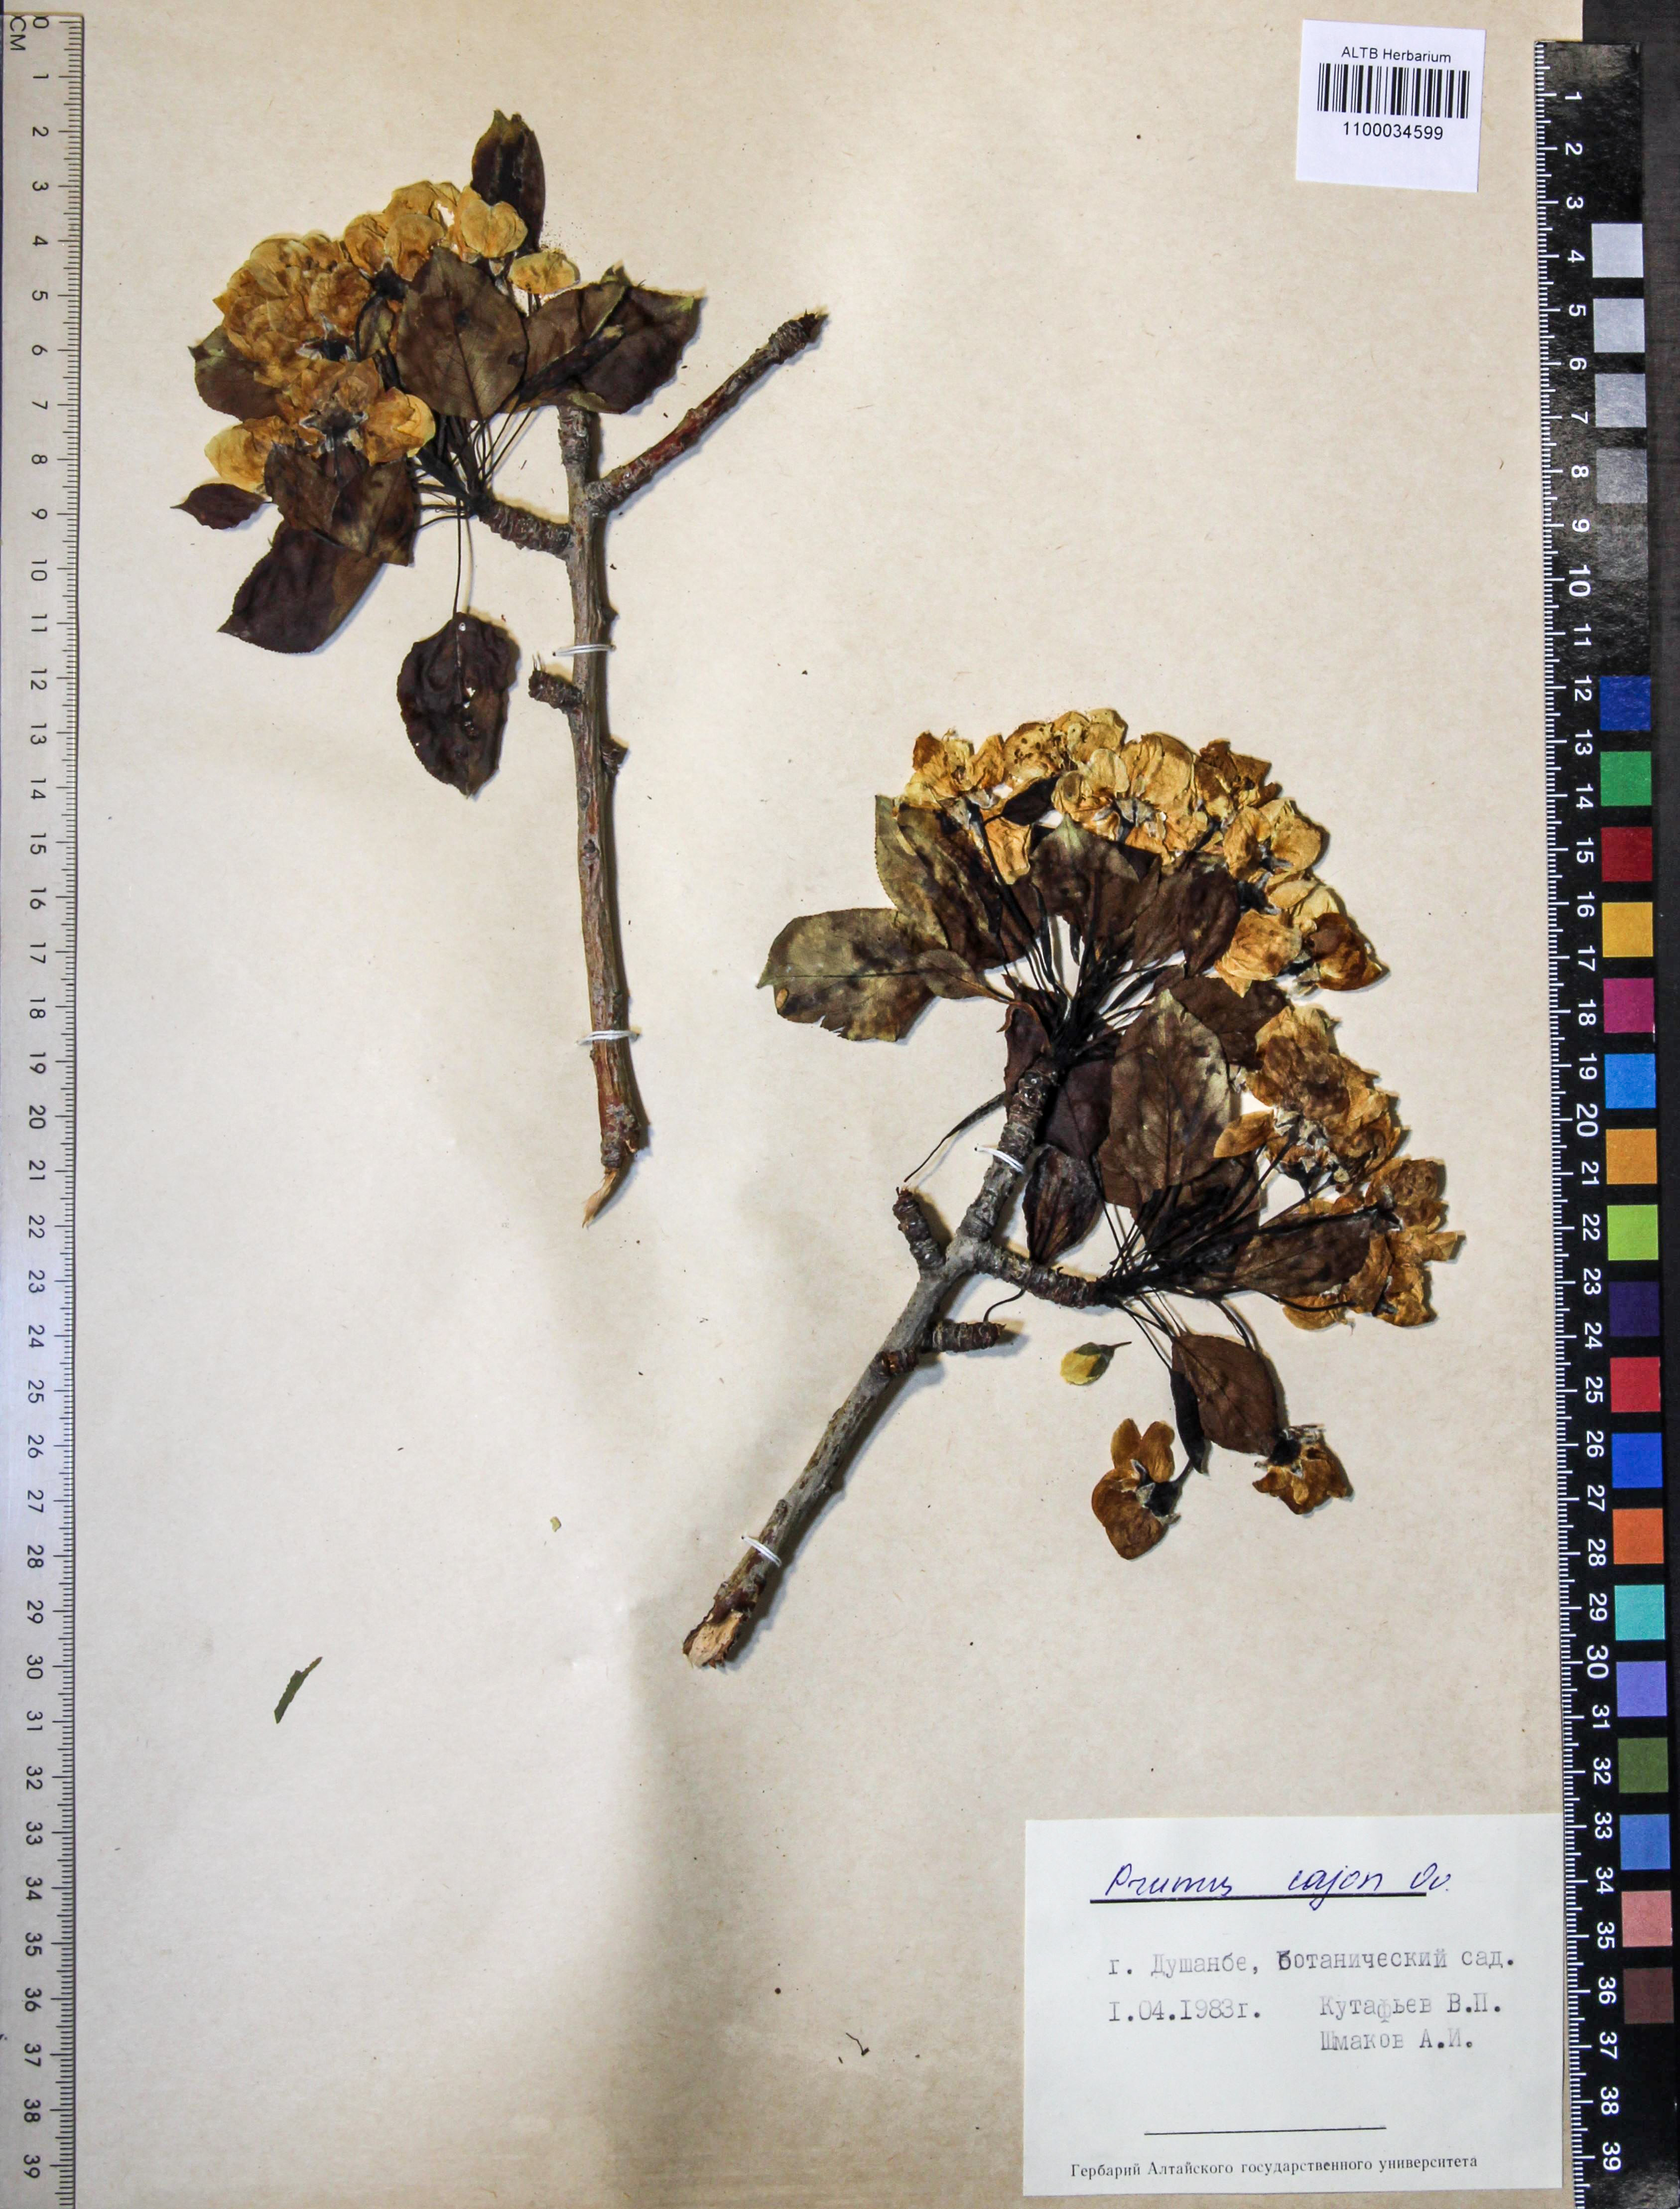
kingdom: Plantae
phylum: Tracheophyta
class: Magnoliopsida
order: Rosales
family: Rosaceae
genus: Prunus
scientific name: Prunus
